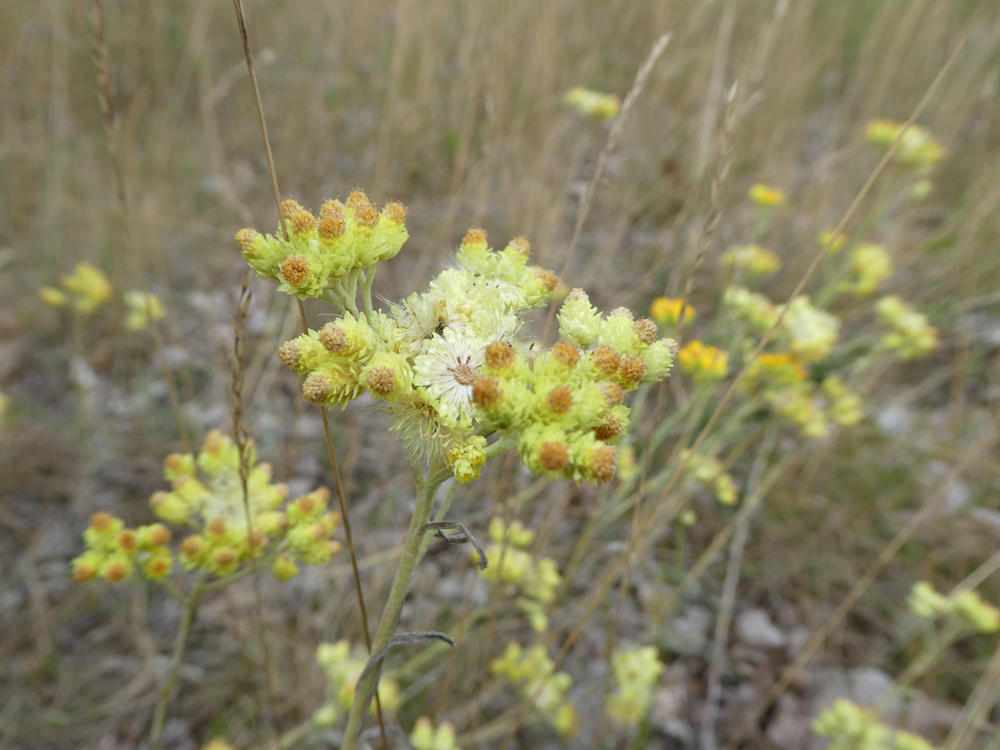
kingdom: Plantae
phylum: Tracheophyta
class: Magnoliopsida
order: Asterales
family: Asteraceae
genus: Helichrysum
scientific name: Helichrysum arenarium
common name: Strawflower
